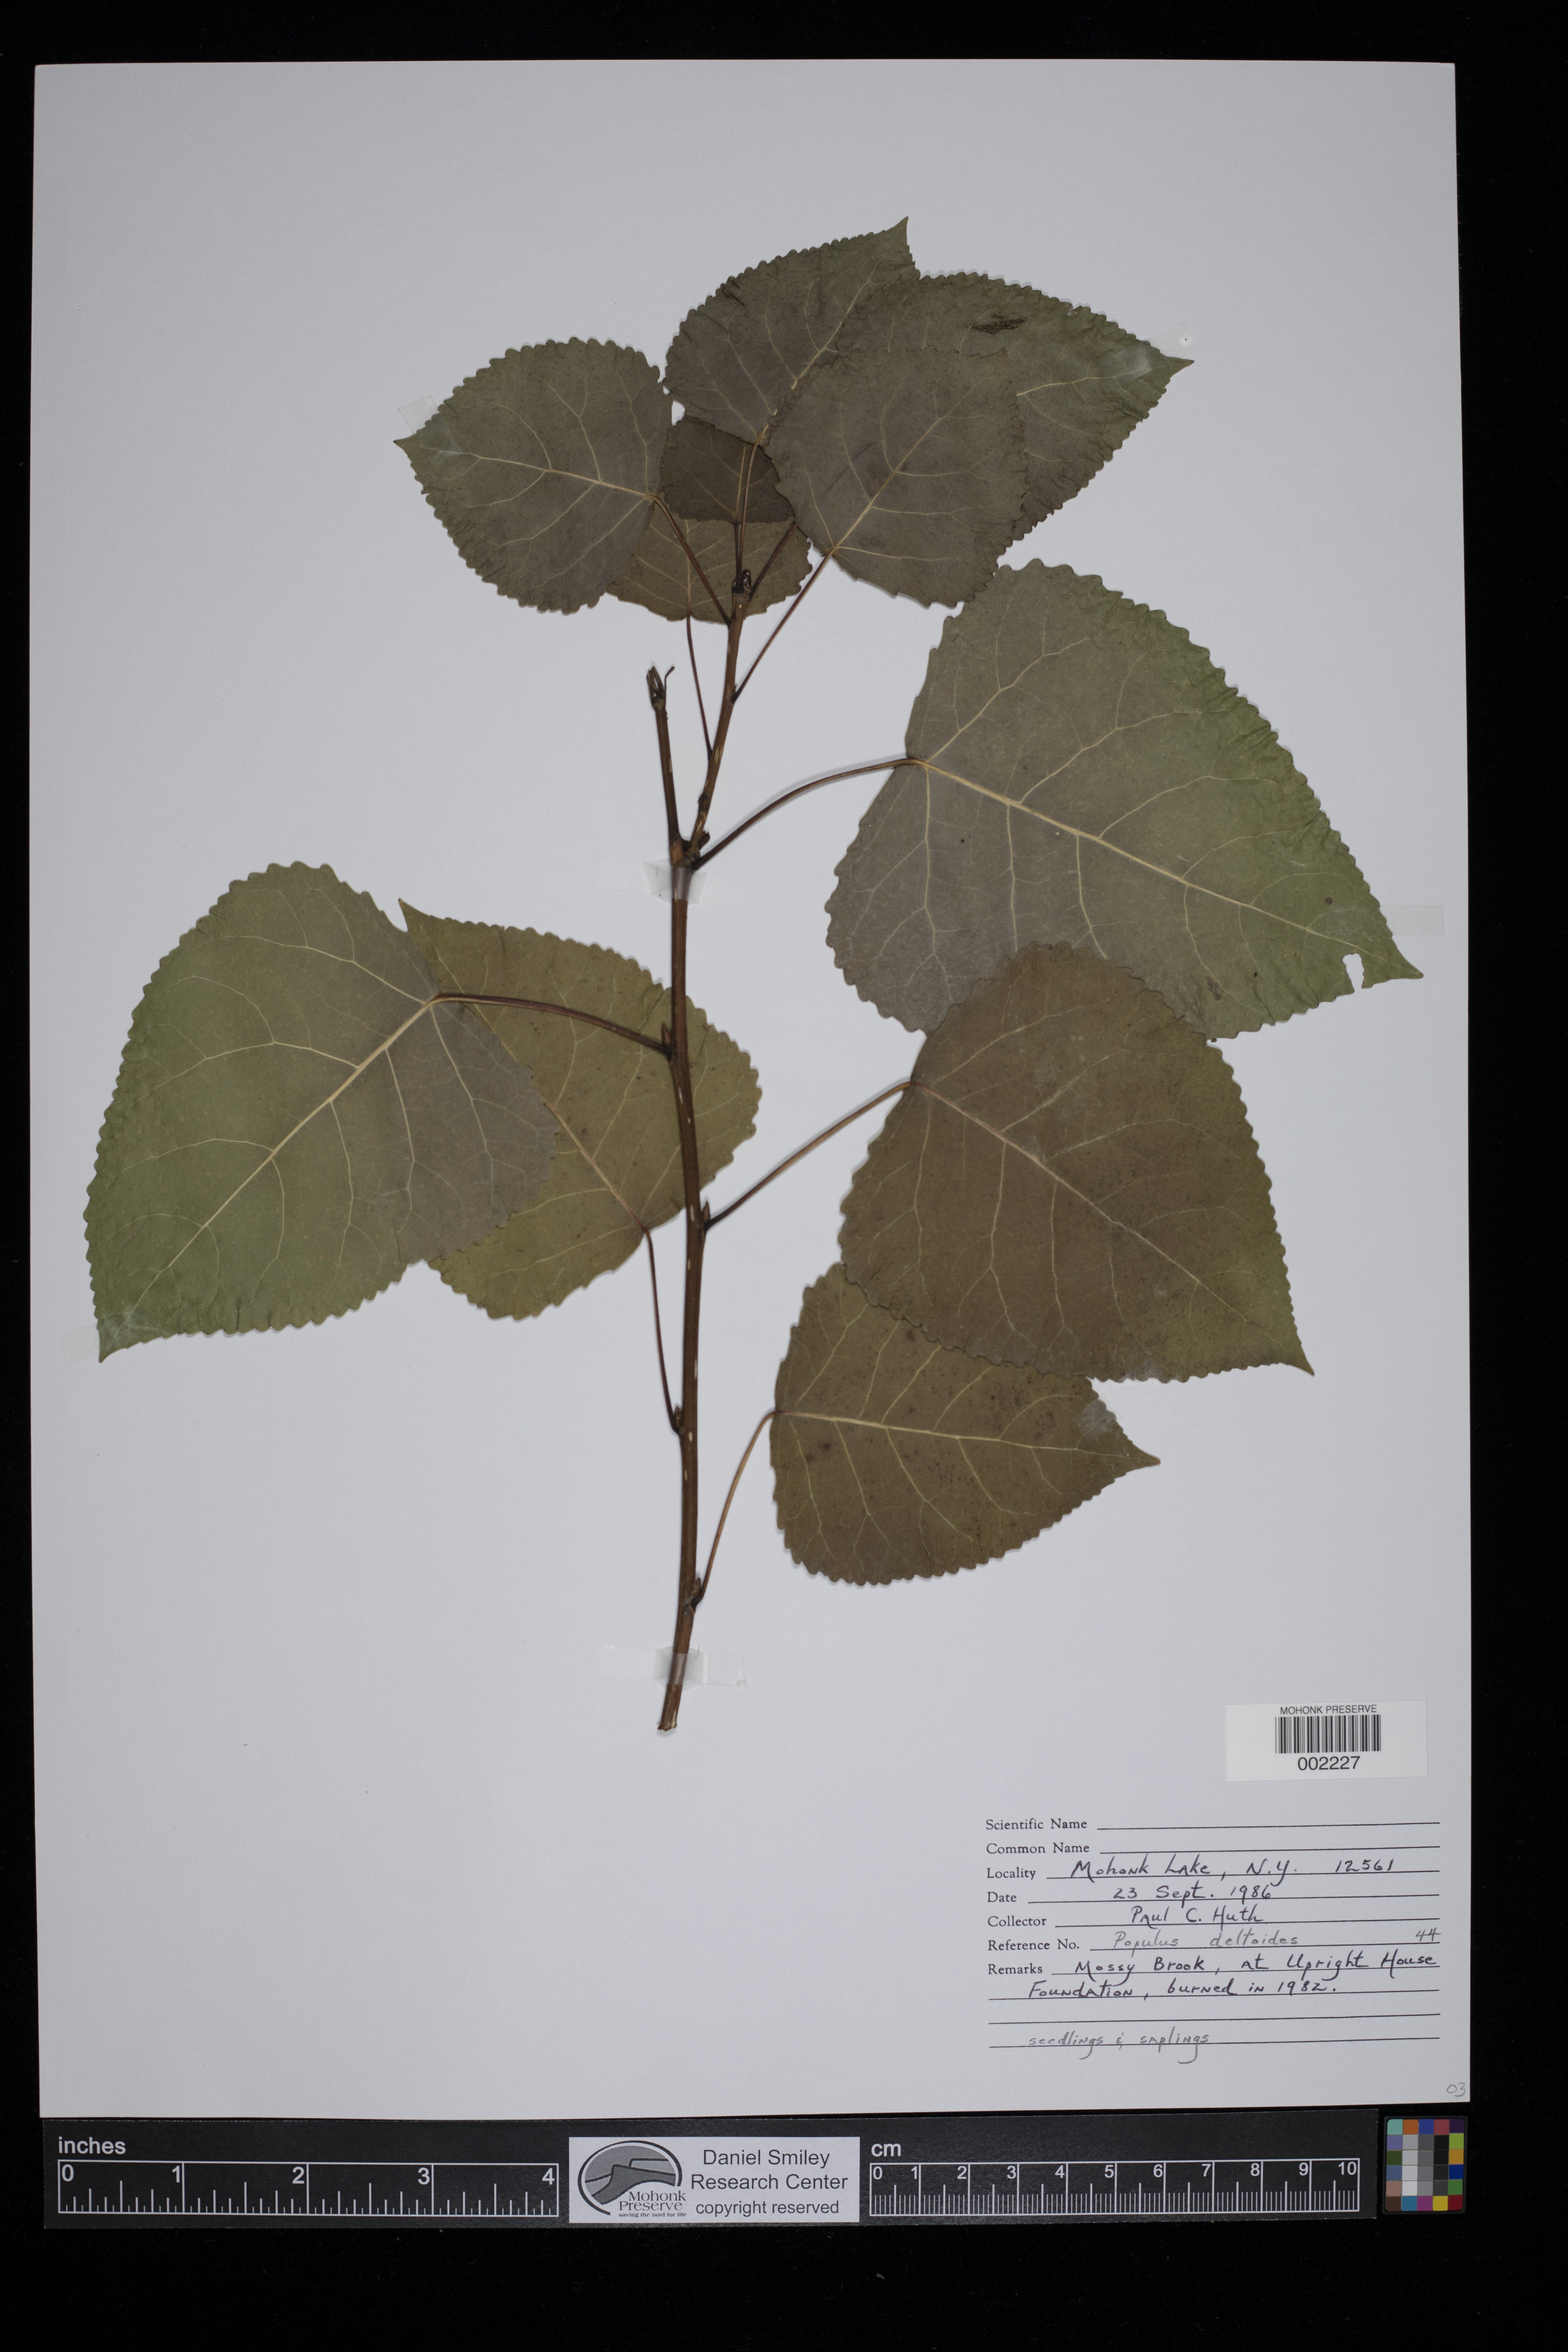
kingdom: Plantae
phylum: Tracheophyta
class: Magnoliopsida
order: Malpighiales
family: Salicaceae
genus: Populus
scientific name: Populus deltoides
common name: Eastern cottonwood
